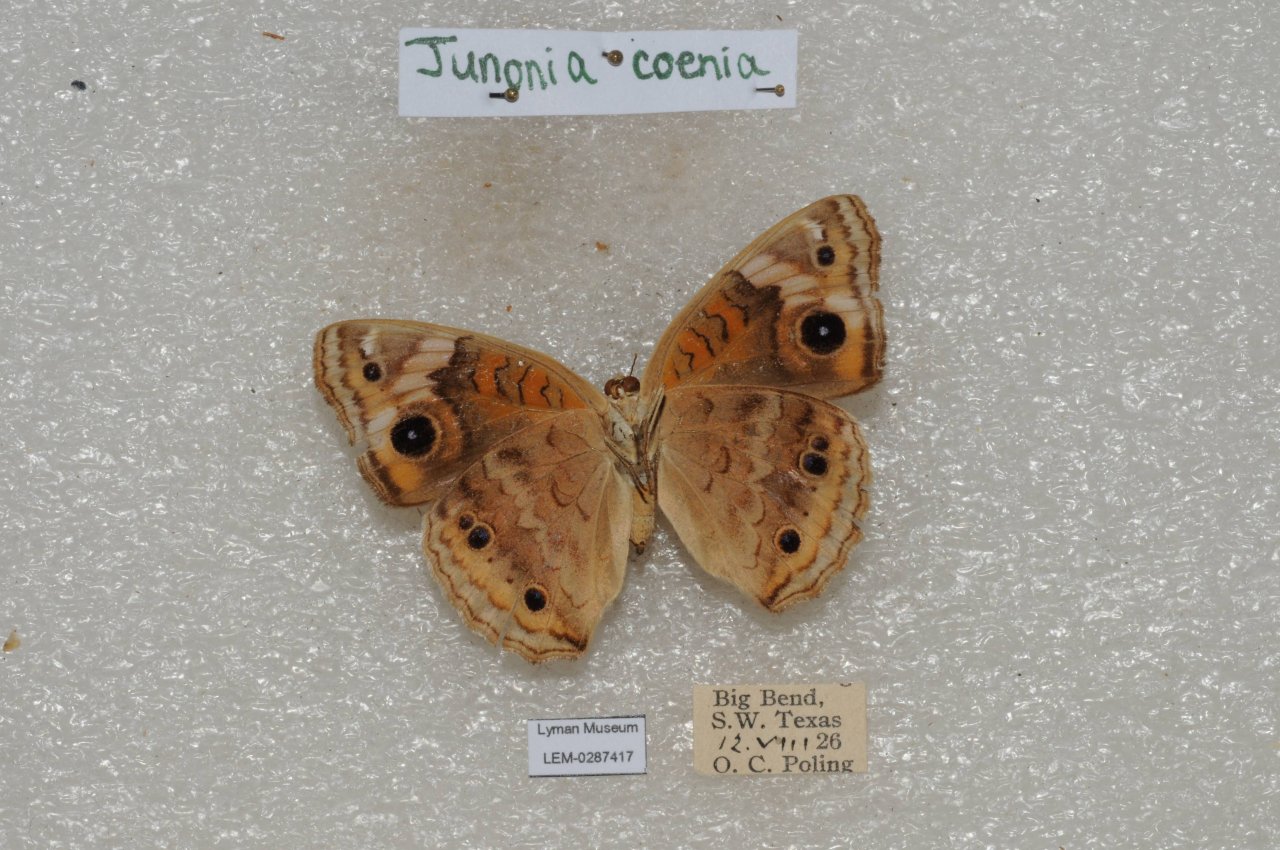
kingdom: Animalia
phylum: Arthropoda
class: Insecta
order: Lepidoptera
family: Nymphalidae
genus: Junonia
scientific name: Junonia coenia
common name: Common Buckeye
